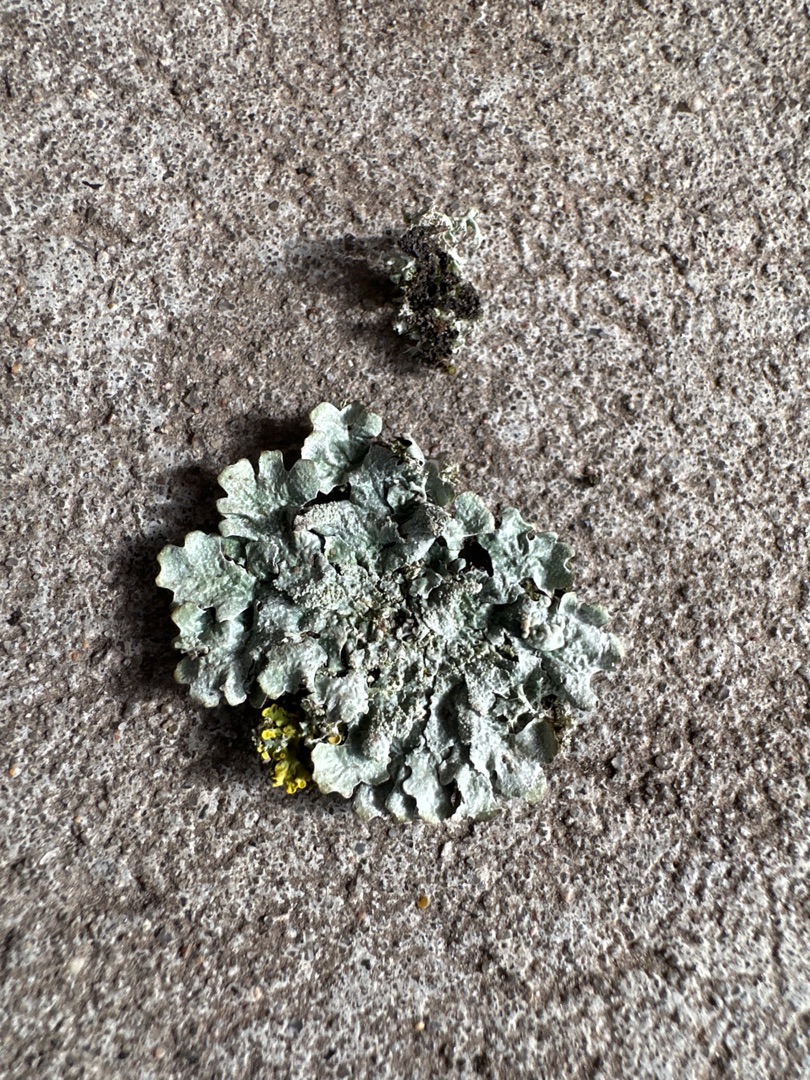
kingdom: Fungi
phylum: Ascomycota
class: Lecanoromycetes
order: Lecanorales
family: Parmeliaceae
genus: Parmelia
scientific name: Parmelia sulcata
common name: Rynket skållav
